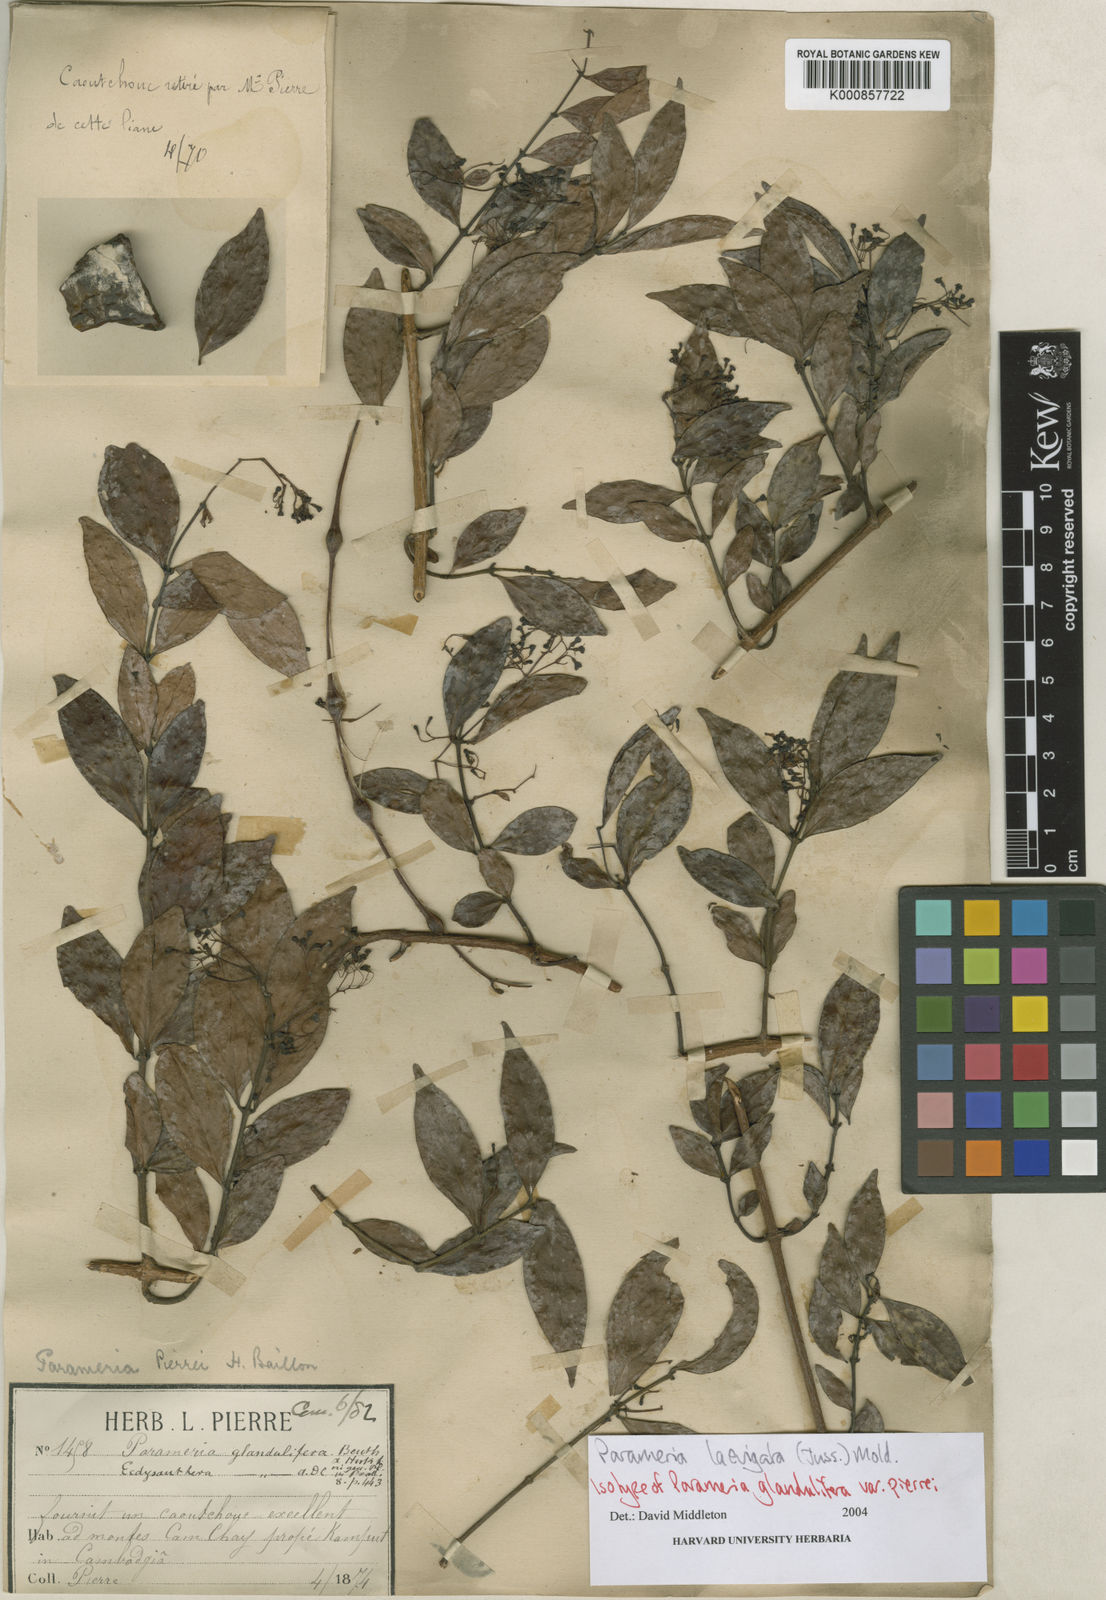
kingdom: Plantae
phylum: Tracheophyta
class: Magnoliopsida
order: Gentianales
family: Apocynaceae
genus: Urceola
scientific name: Urceola laevigata
